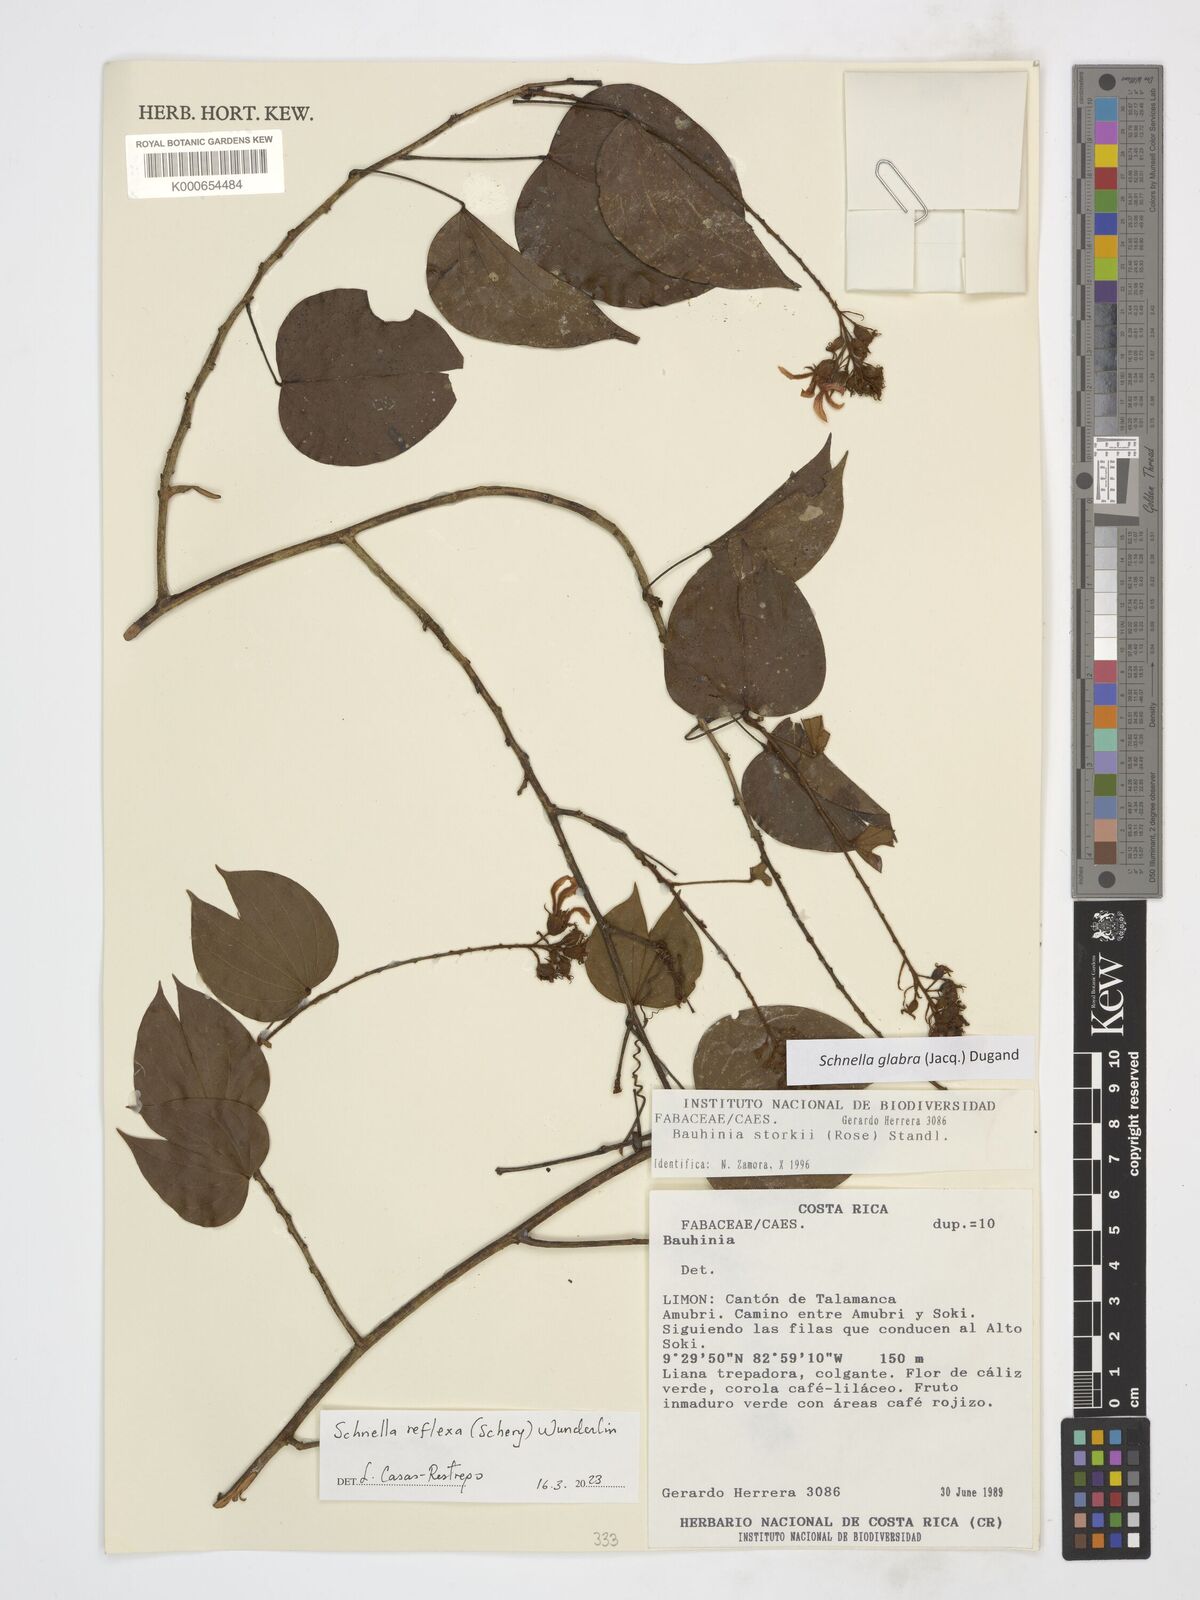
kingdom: Plantae
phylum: Tracheophyta
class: Magnoliopsida
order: Fabales
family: Fabaceae
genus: Schnella
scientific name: Schnella reflexa
